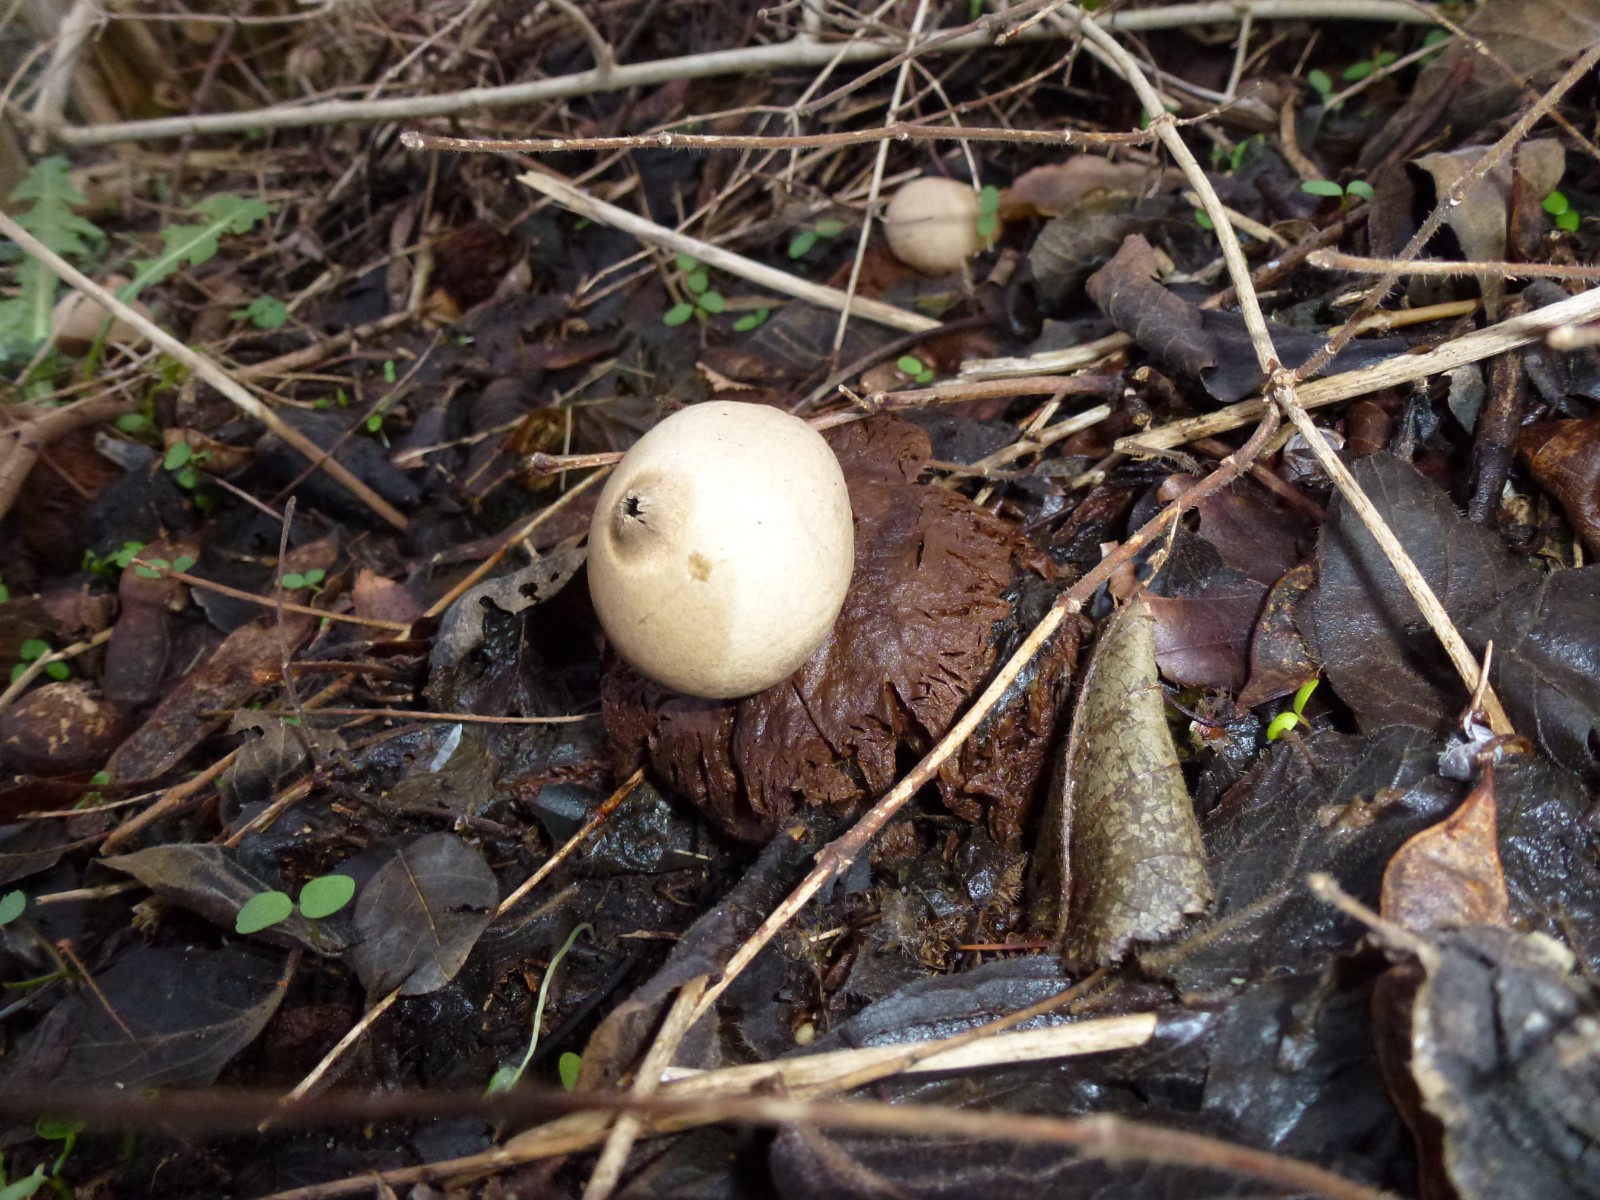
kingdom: Fungi
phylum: Basidiomycota
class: Agaricomycetes
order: Geastrales
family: Geastraceae
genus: Geastrum
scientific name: Geastrum michelianum
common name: kødet stjernebold
